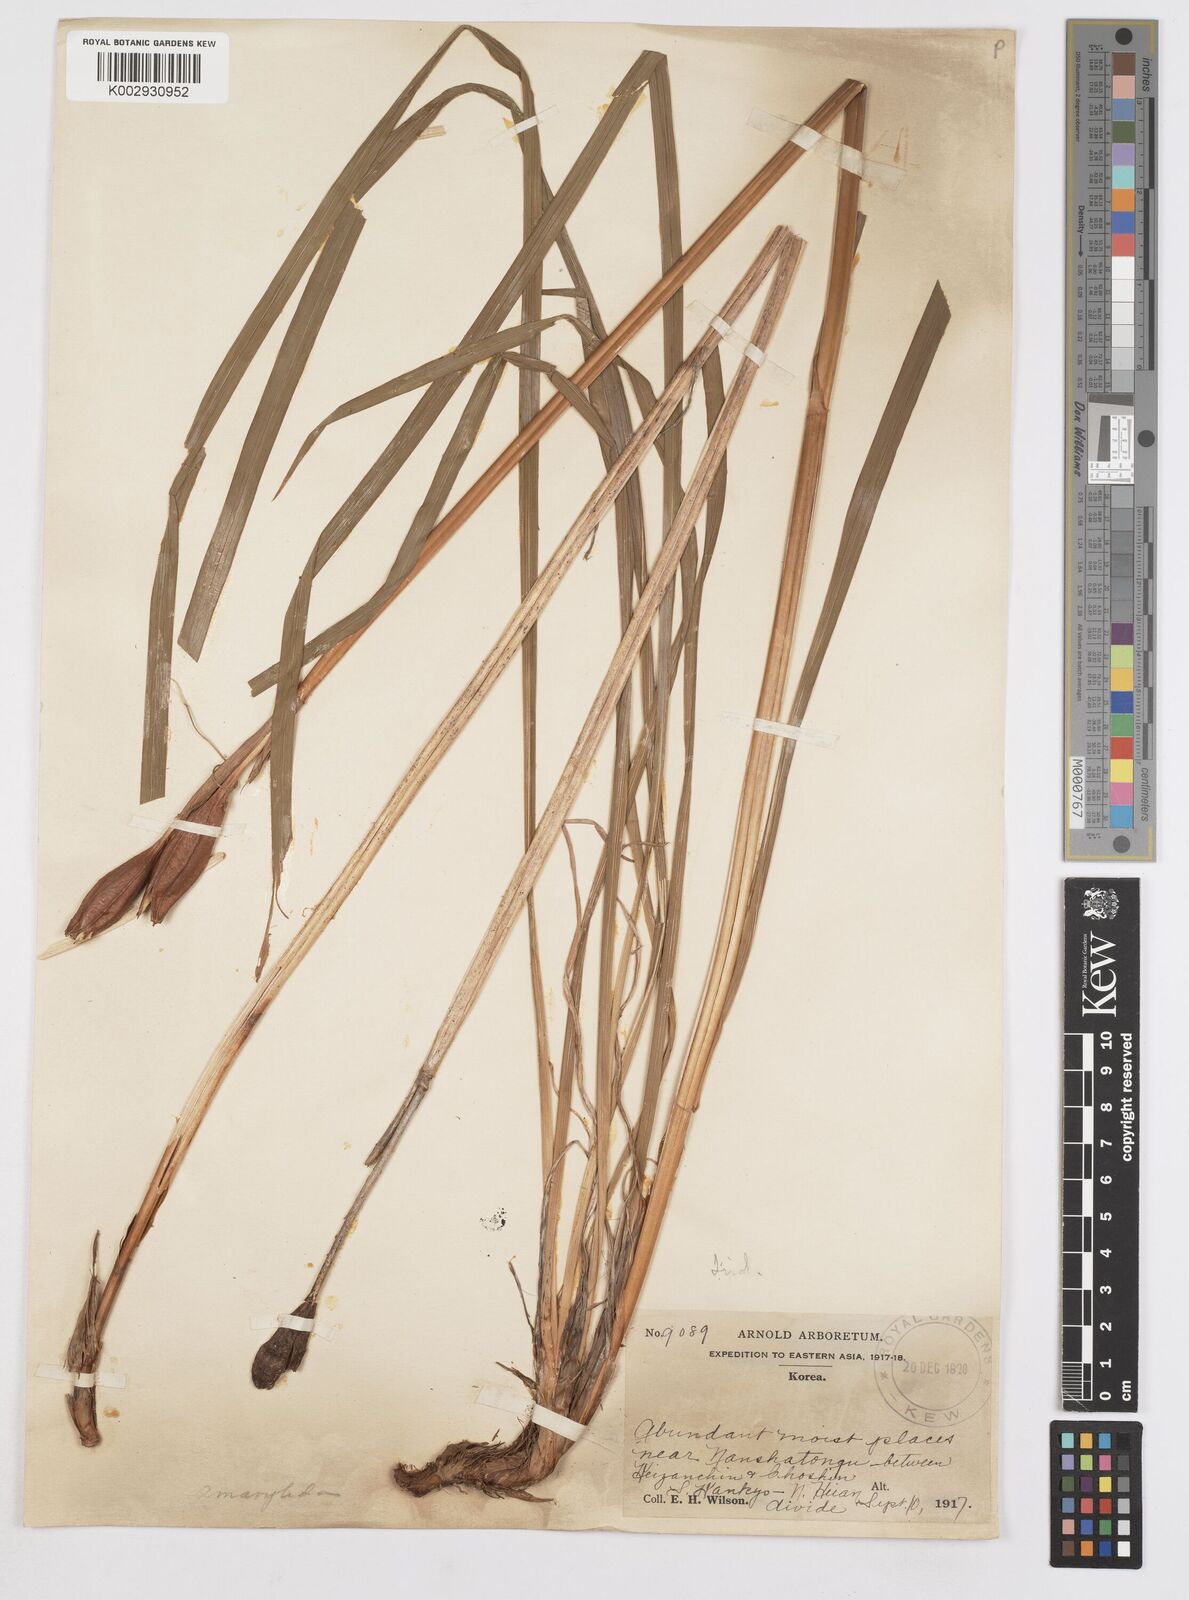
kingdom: Plantae
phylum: Tracheophyta
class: Liliopsida
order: Asparagales
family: Iridaceae
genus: Iris
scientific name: Iris
